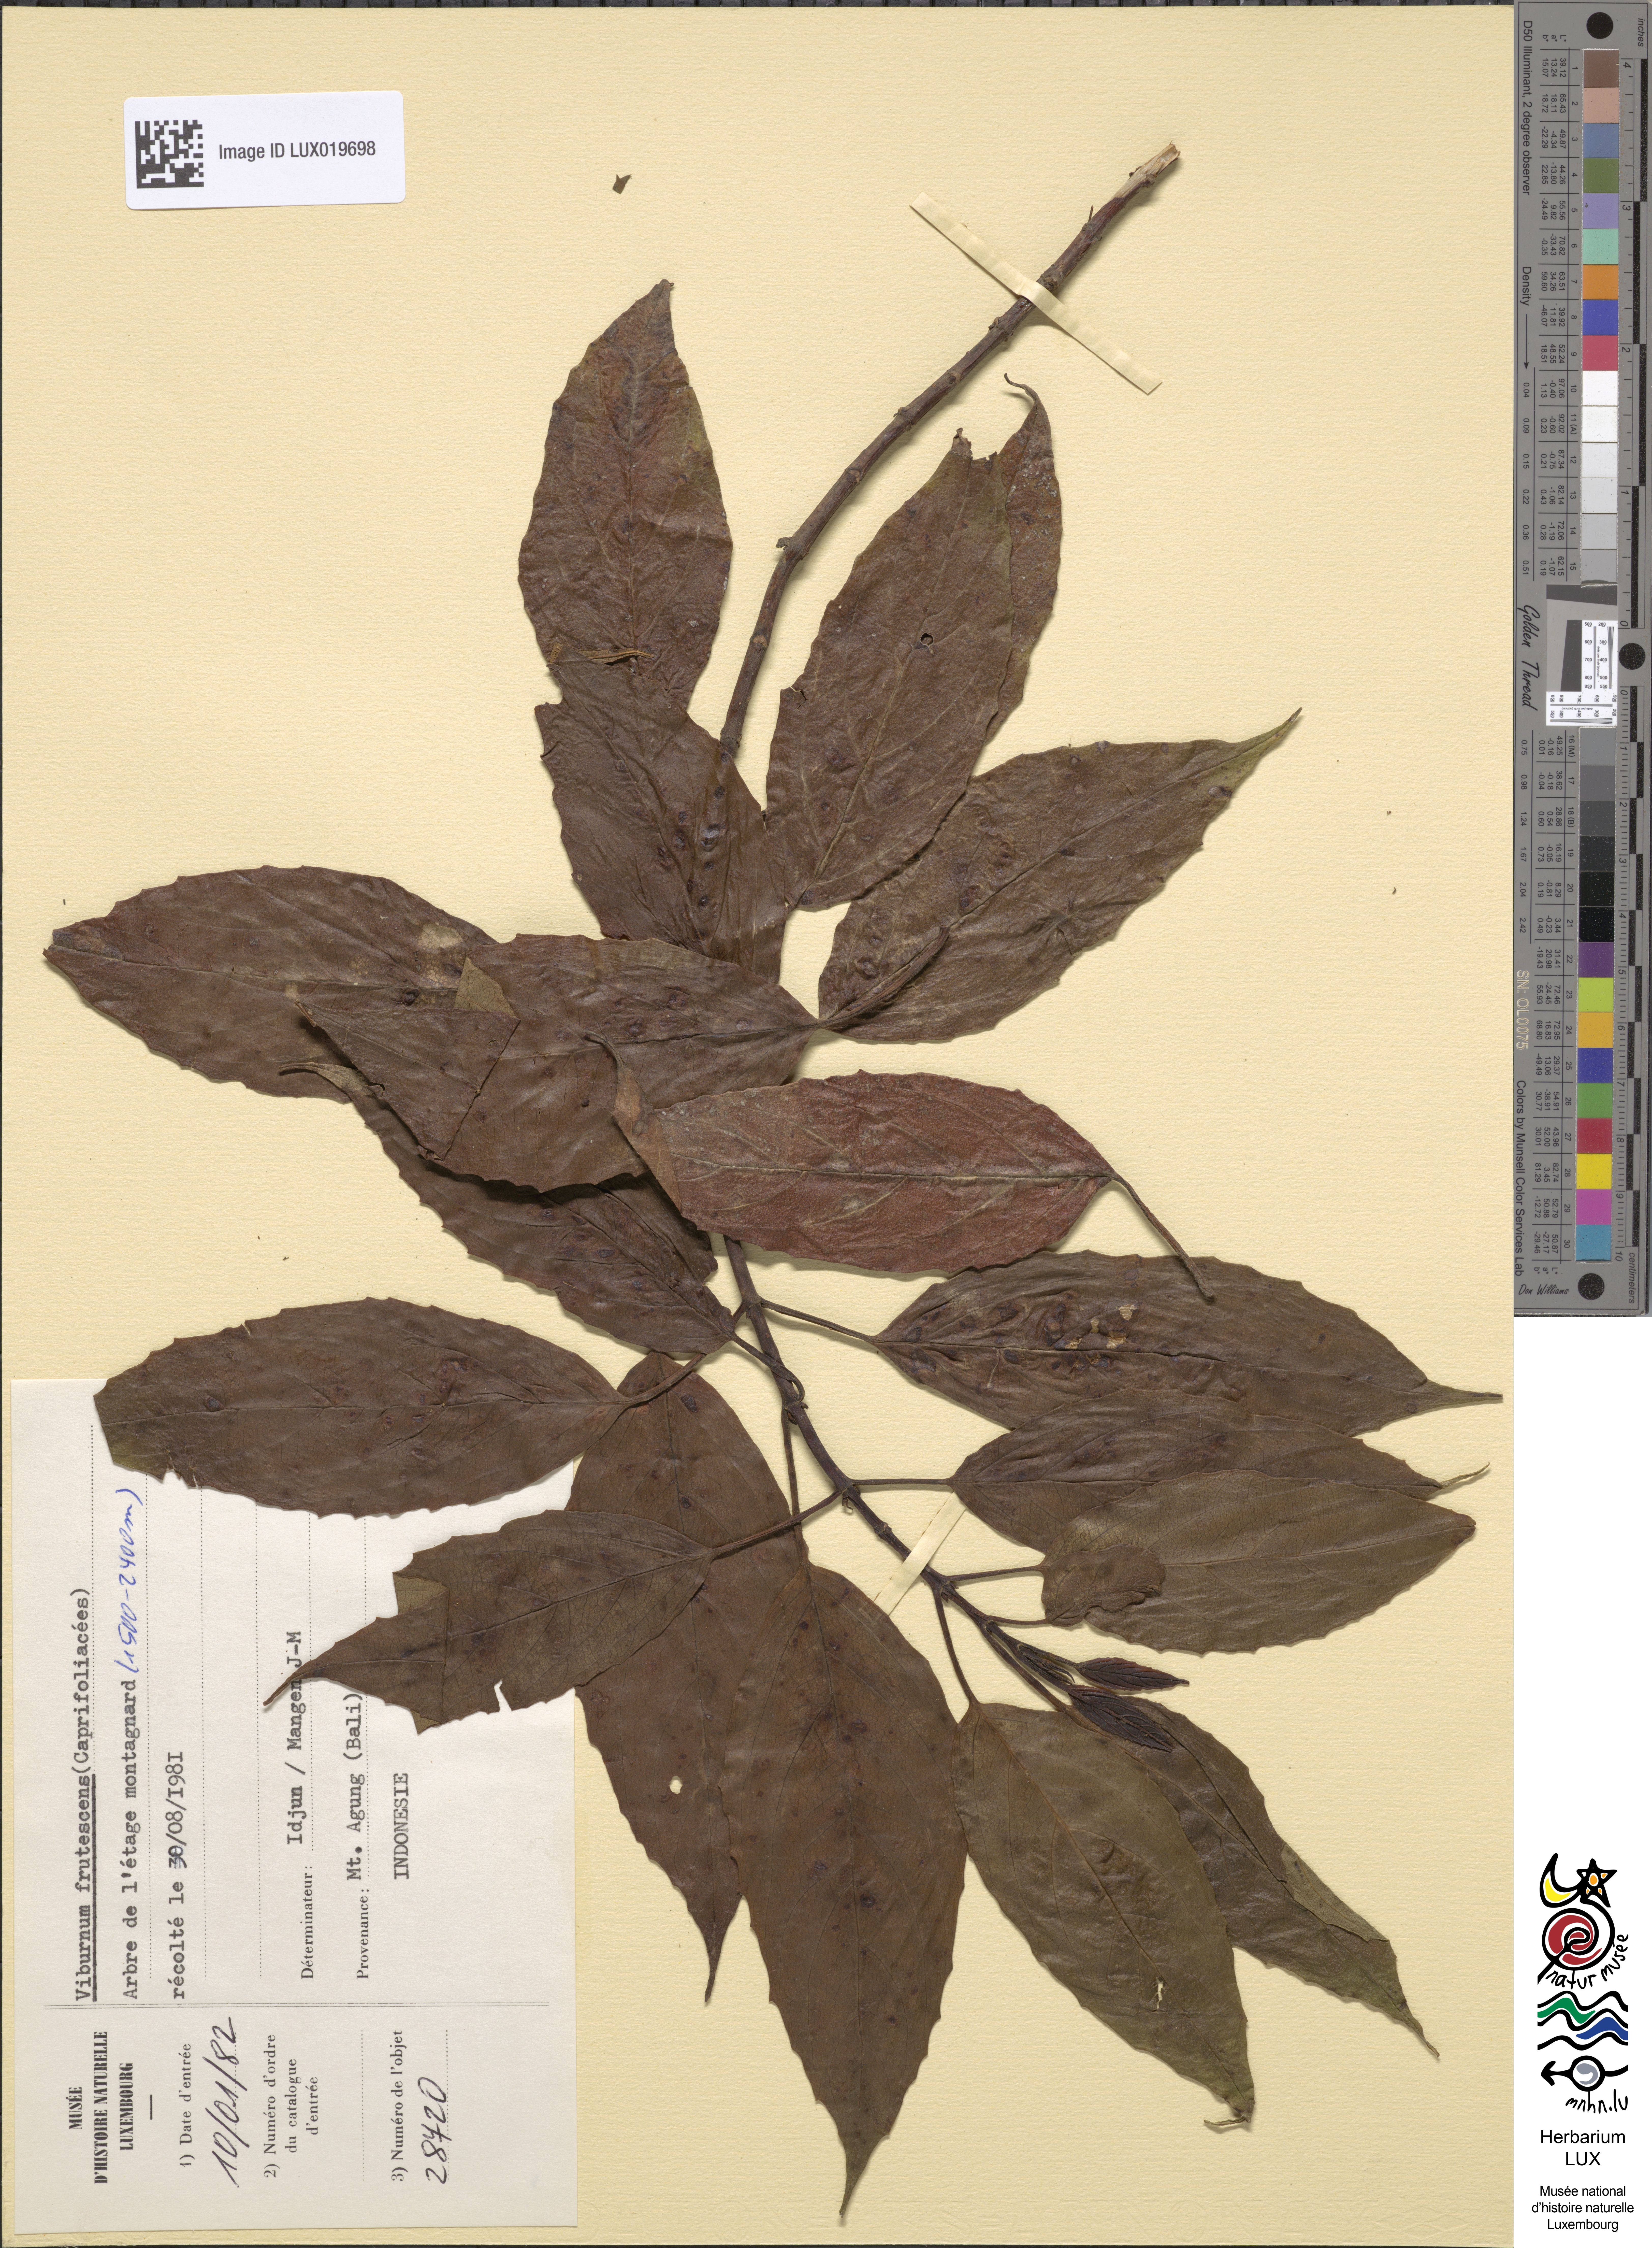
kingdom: Plantae
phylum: Tracheophyta
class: Magnoliopsida
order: Dipsacales
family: Viburnaceae
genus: Viburnum
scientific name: Viburnum
